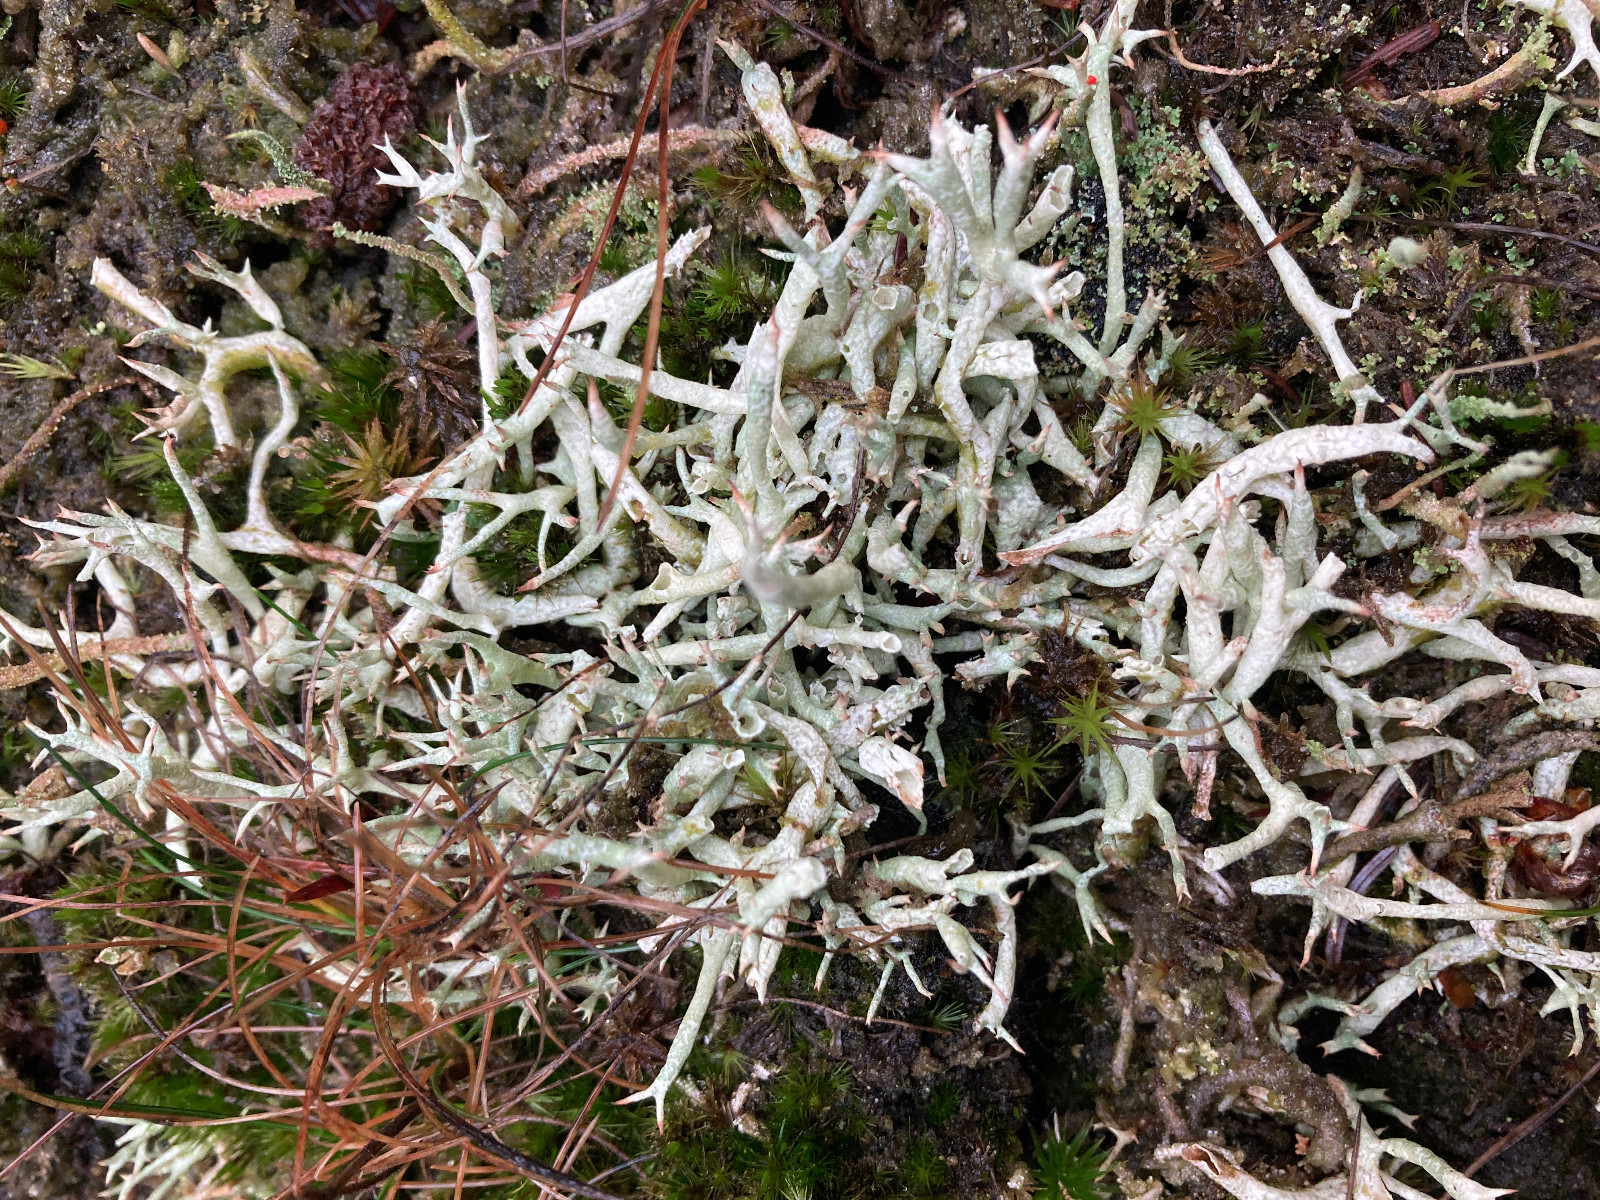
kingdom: Fungi
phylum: Ascomycota
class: Lecanoromycetes
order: Lecanorales
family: Cladoniaceae
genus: Cladonia
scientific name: Cladonia
